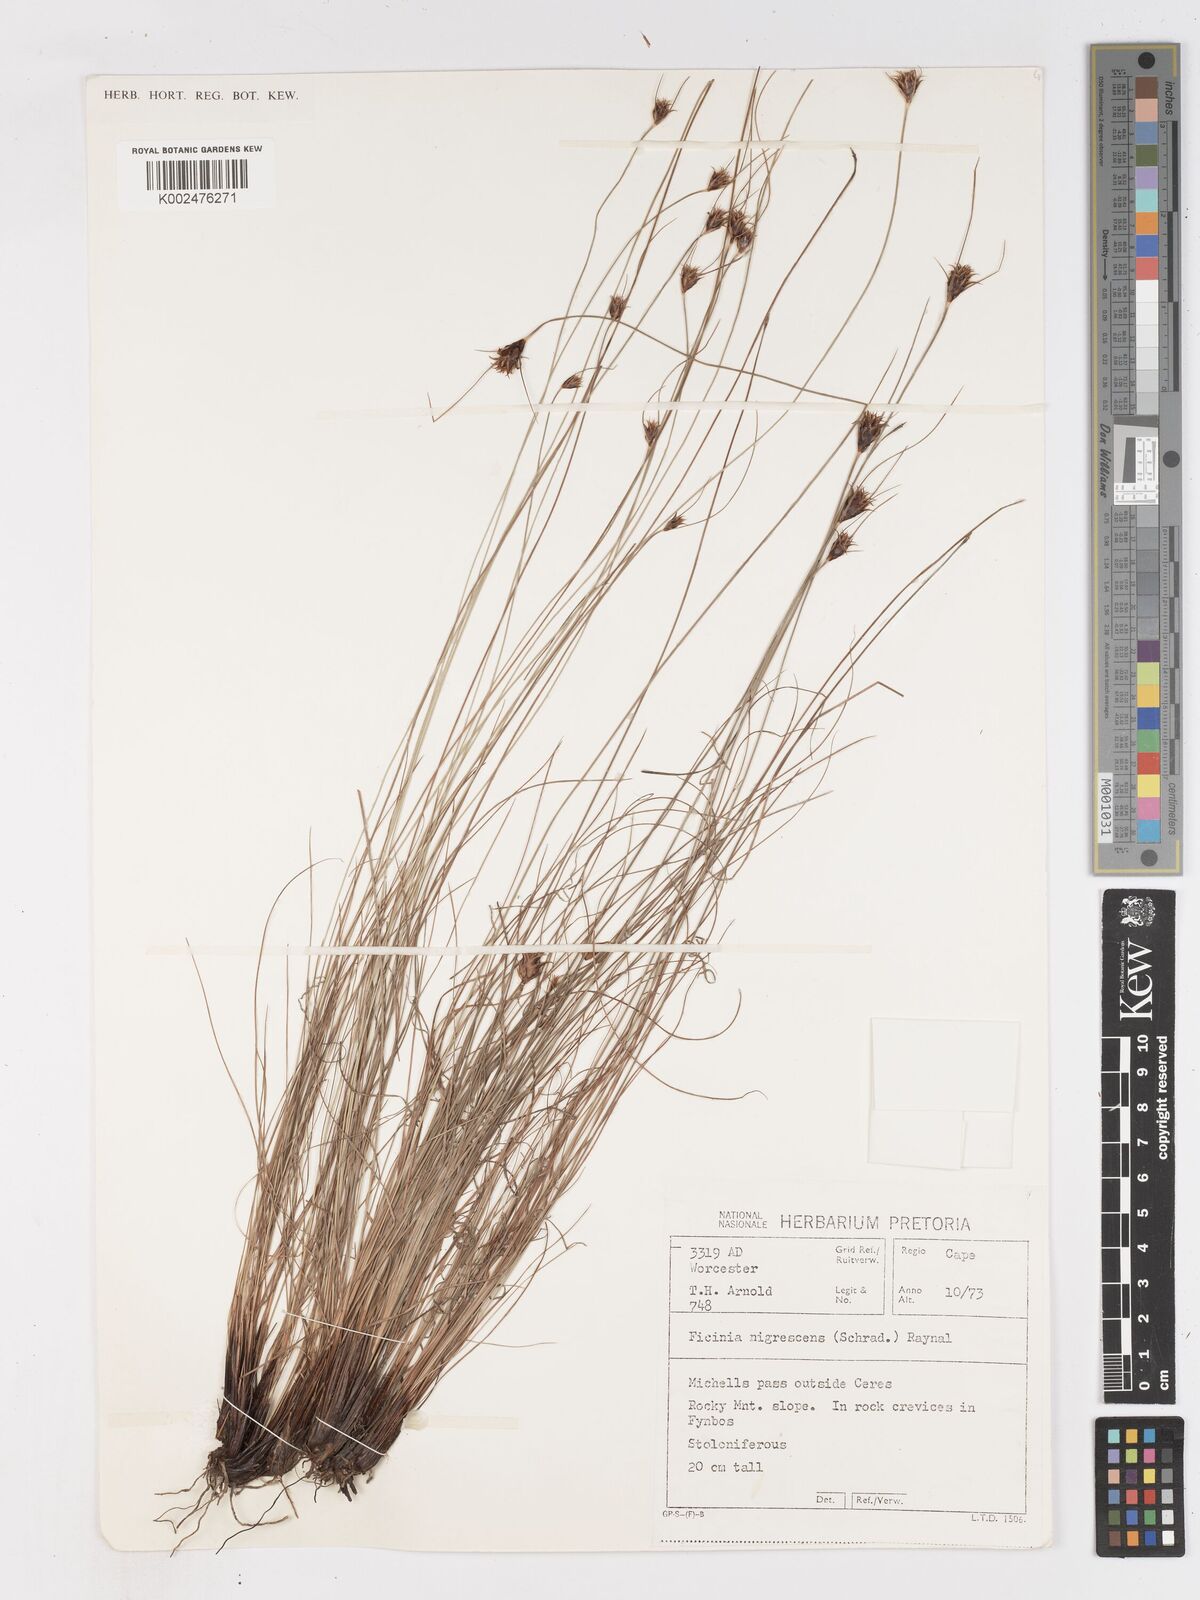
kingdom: Plantae
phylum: Tracheophyta
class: Liliopsida
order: Poales
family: Cyperaceae
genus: Ficinia
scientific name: Ficinia nigrescens
